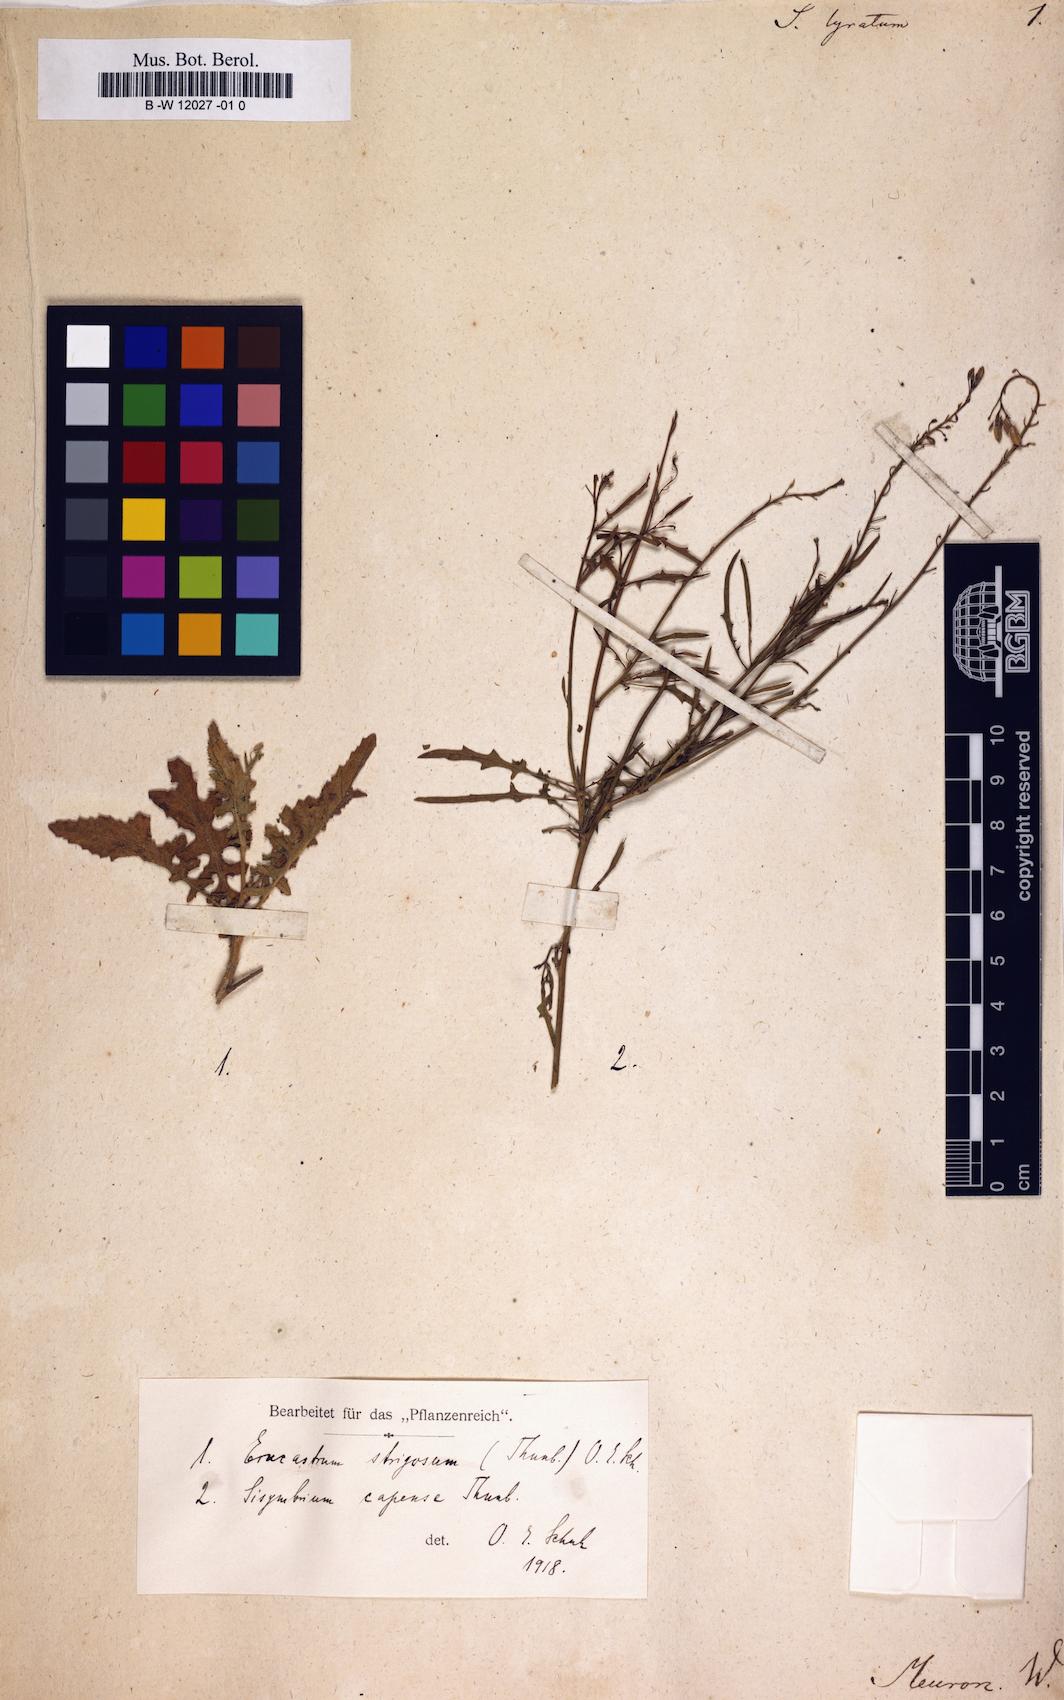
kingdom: Plantae
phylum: Tracheophyta
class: Magnoliopsida
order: Brassicales
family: Brassicaceae
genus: Erucastrum
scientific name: Erucastrum strigosum
